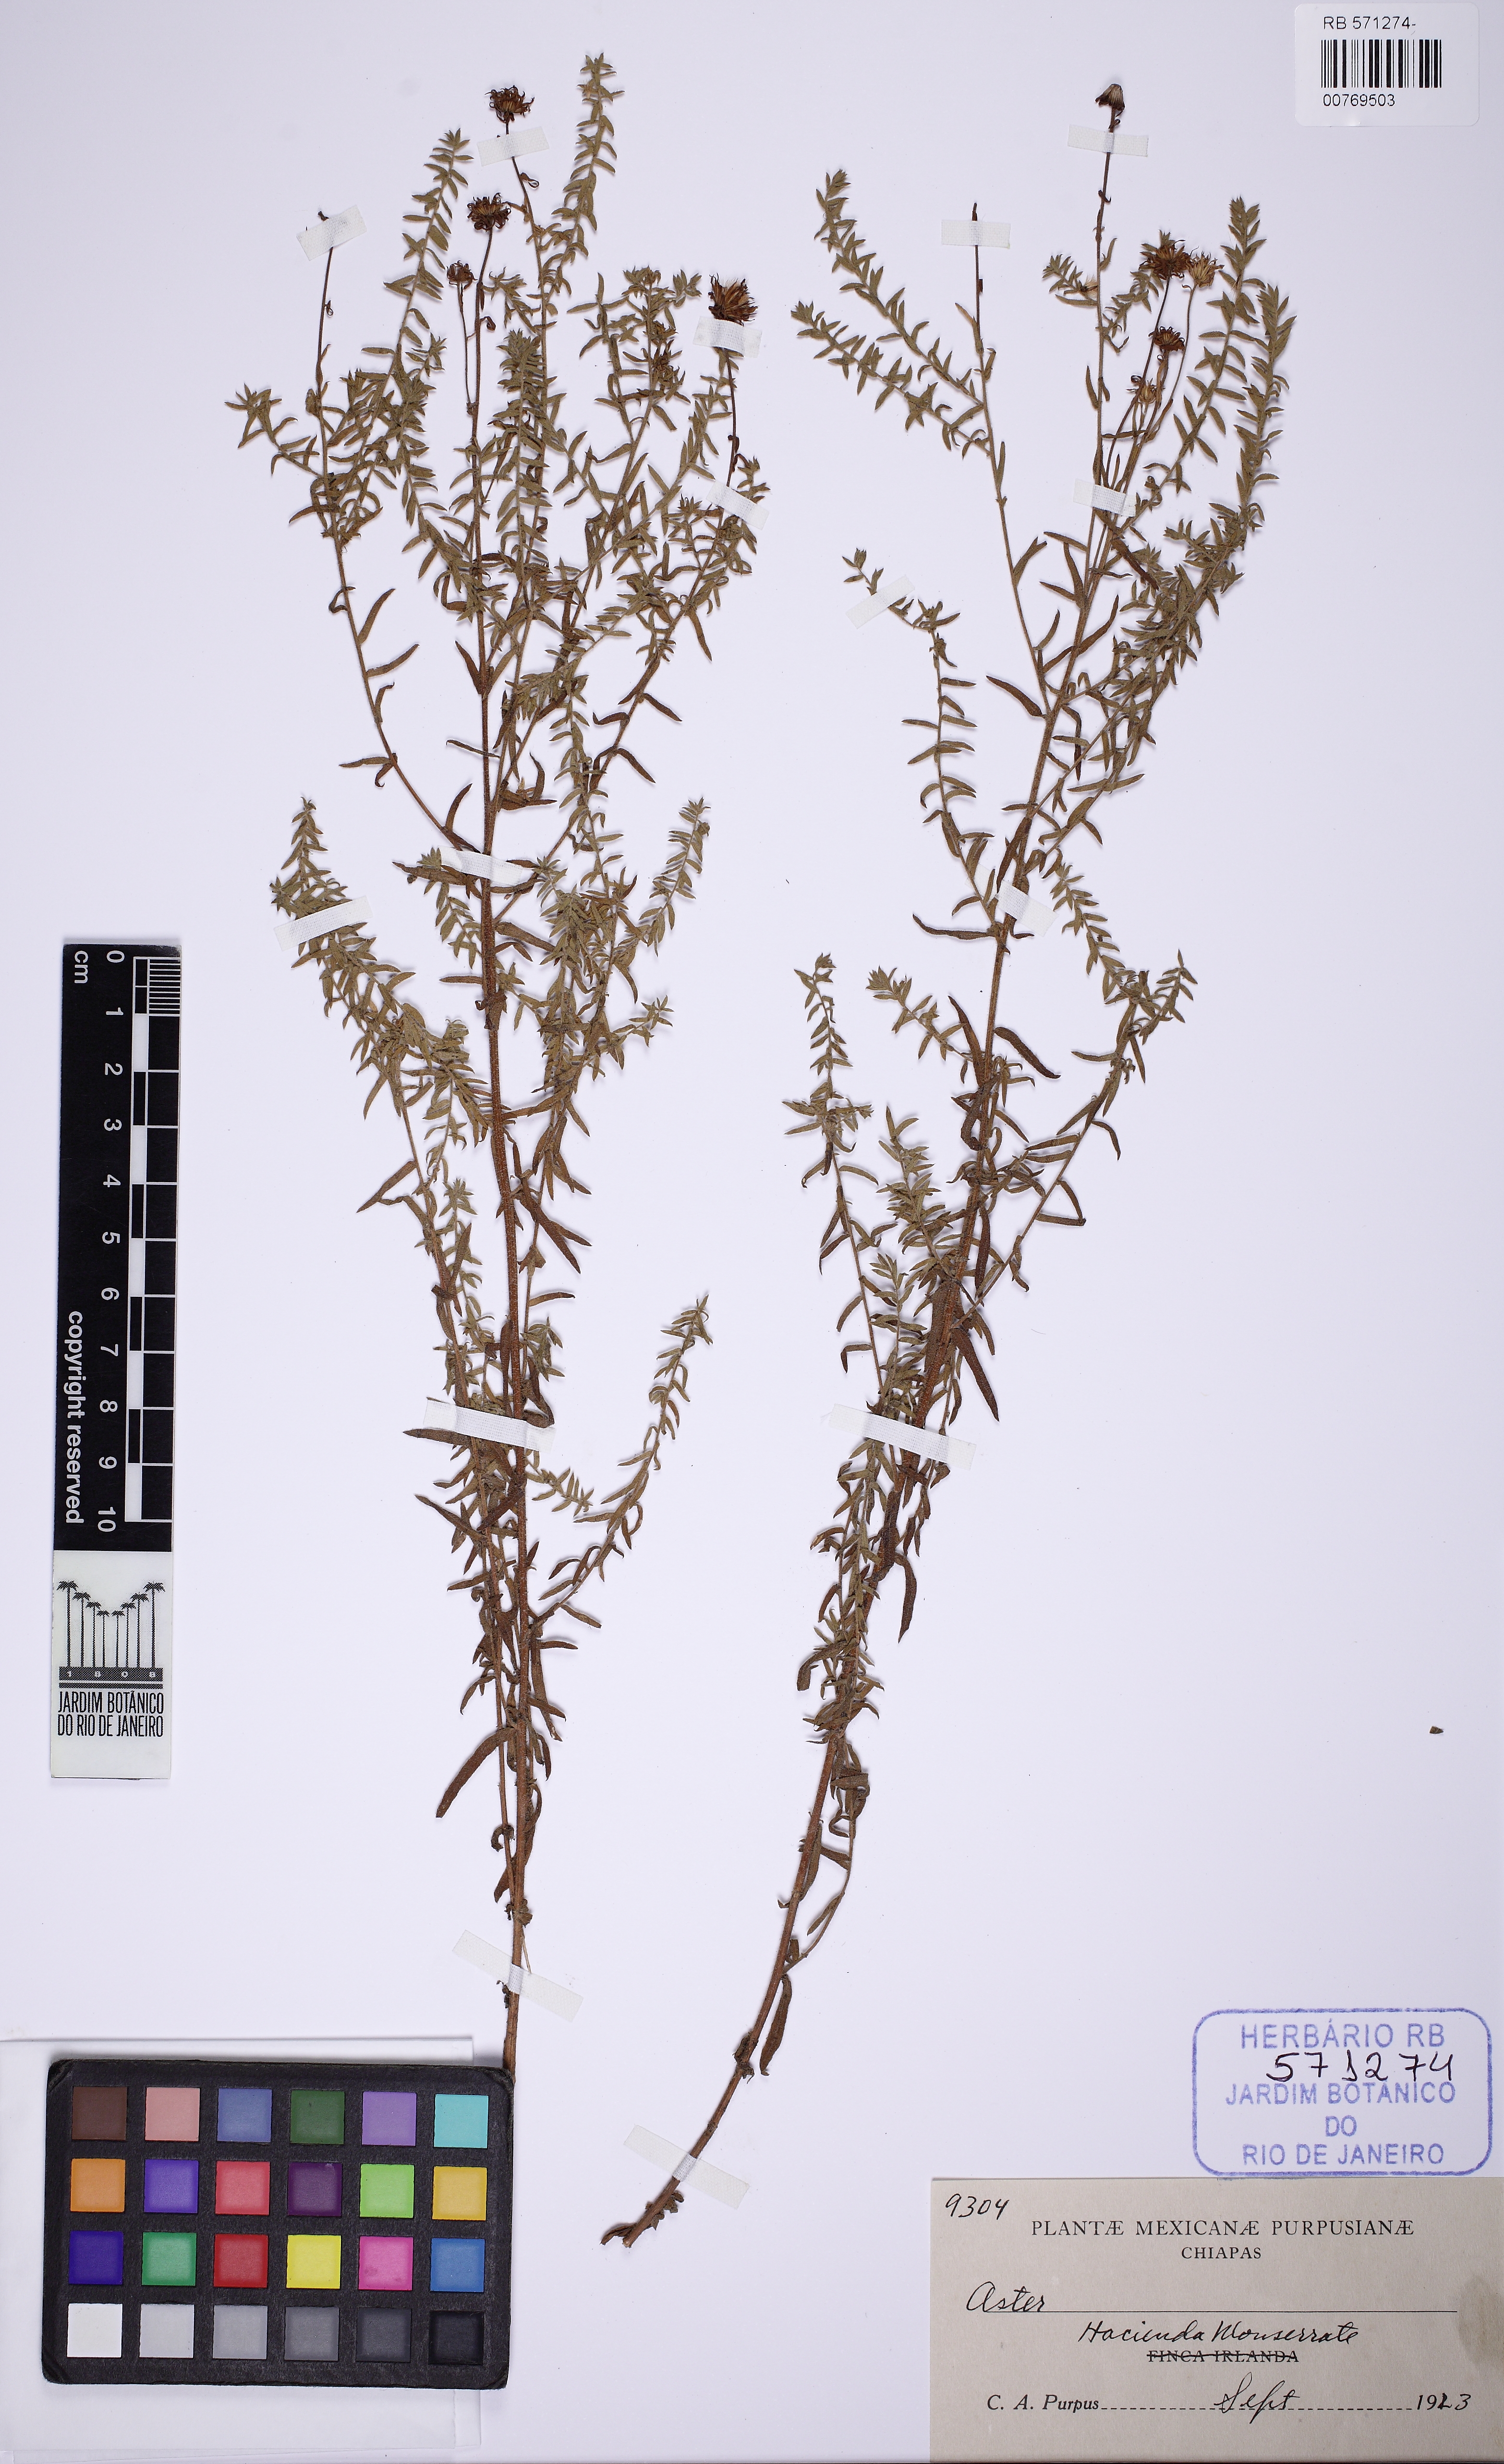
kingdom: Plantae
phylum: Tracheophyta
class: Magnoliopsida
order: Asterales
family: Asteraceae
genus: Aster
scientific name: Aster
